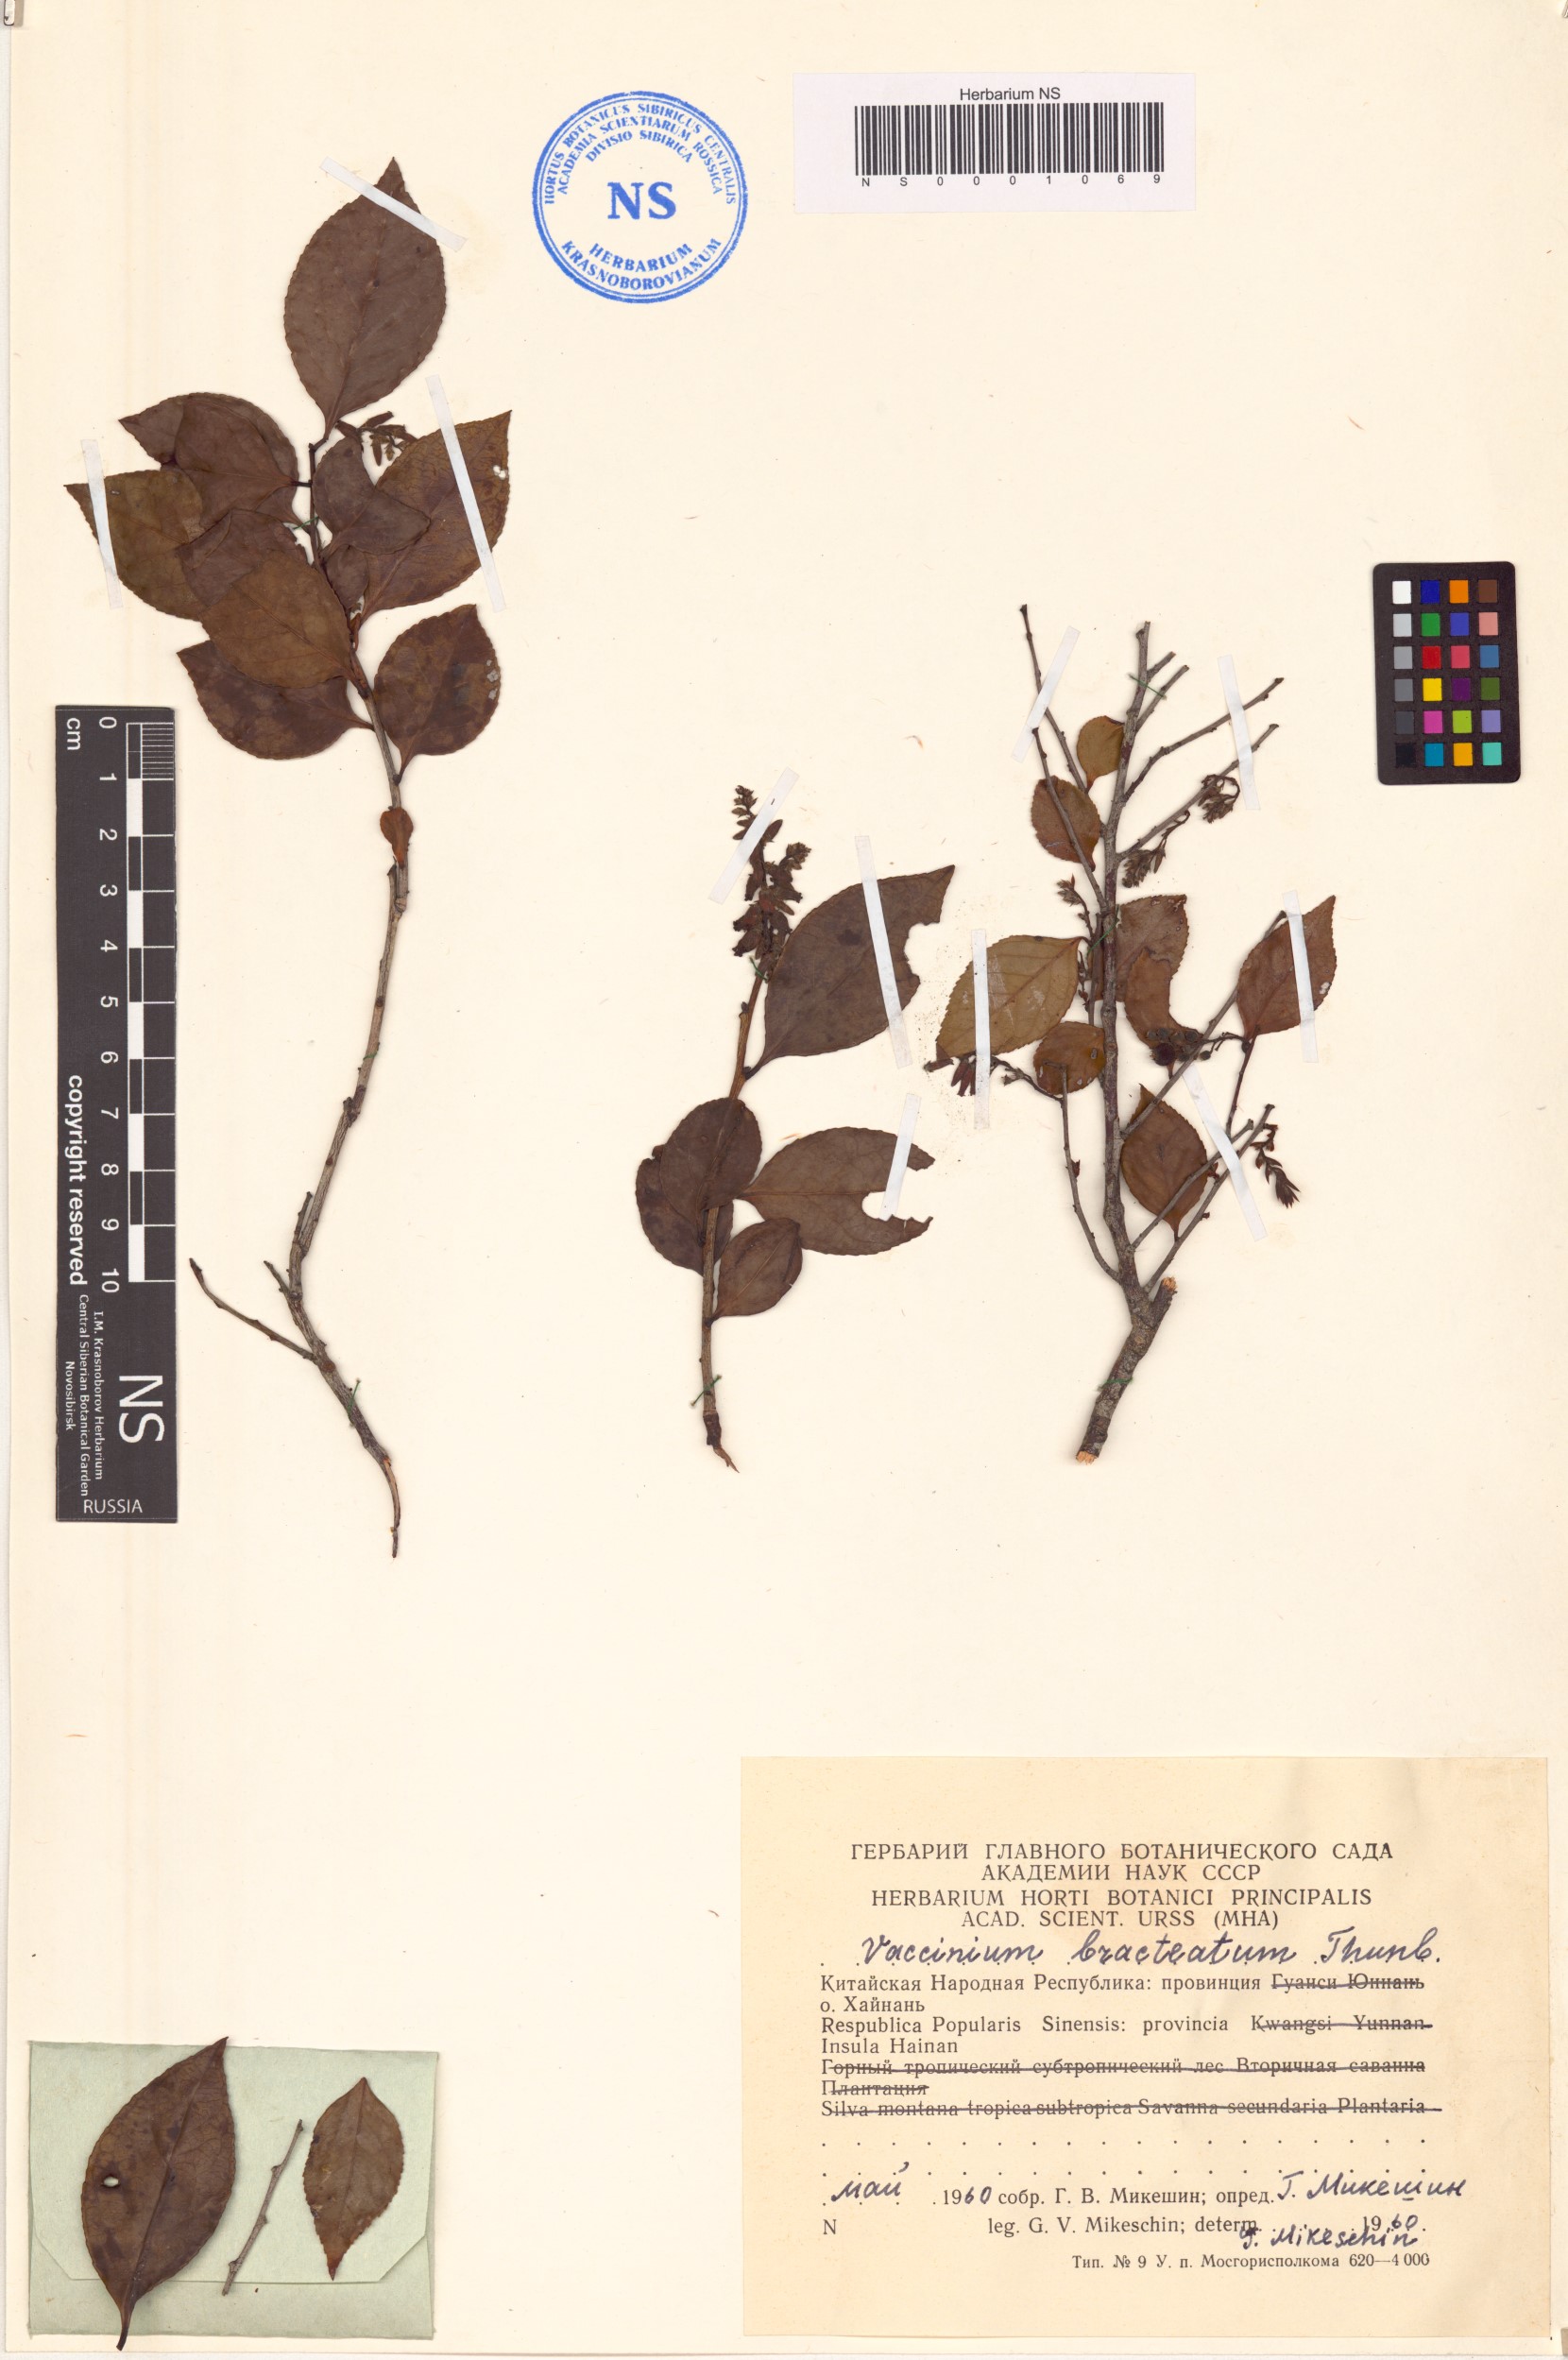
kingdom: Plantae
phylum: Tracheophyta
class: Magnoliopsida
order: Ericales
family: Ericaceae
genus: Vaccinium
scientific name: Vaccinium bracteatum
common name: Sea bilberry
